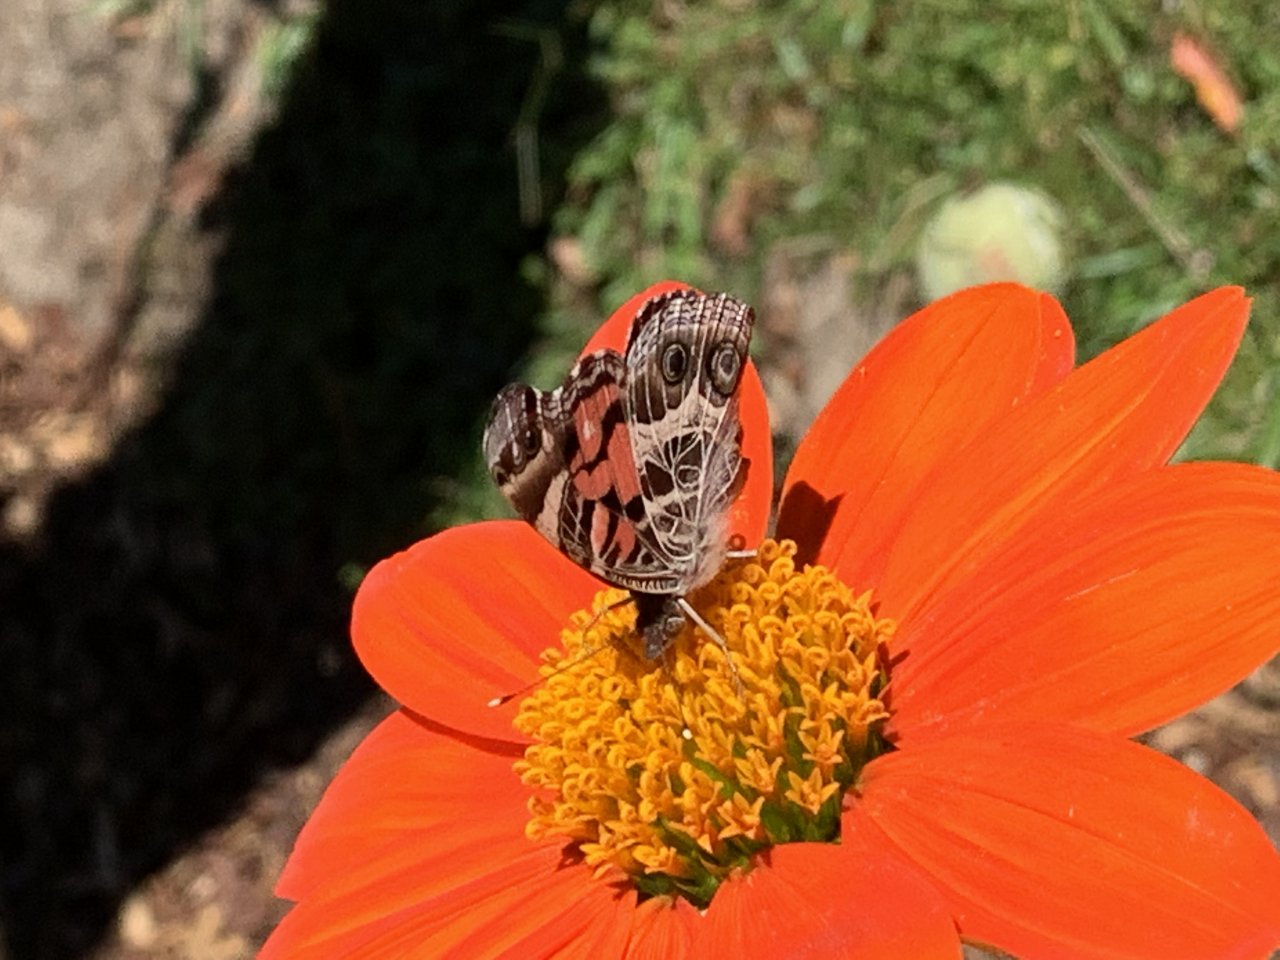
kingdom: Animalia
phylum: Arthropoda
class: Insecta
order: Lepidoptera
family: Nymphalidae
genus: Vanessa
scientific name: Vanessa virginiensis
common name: American Lady
